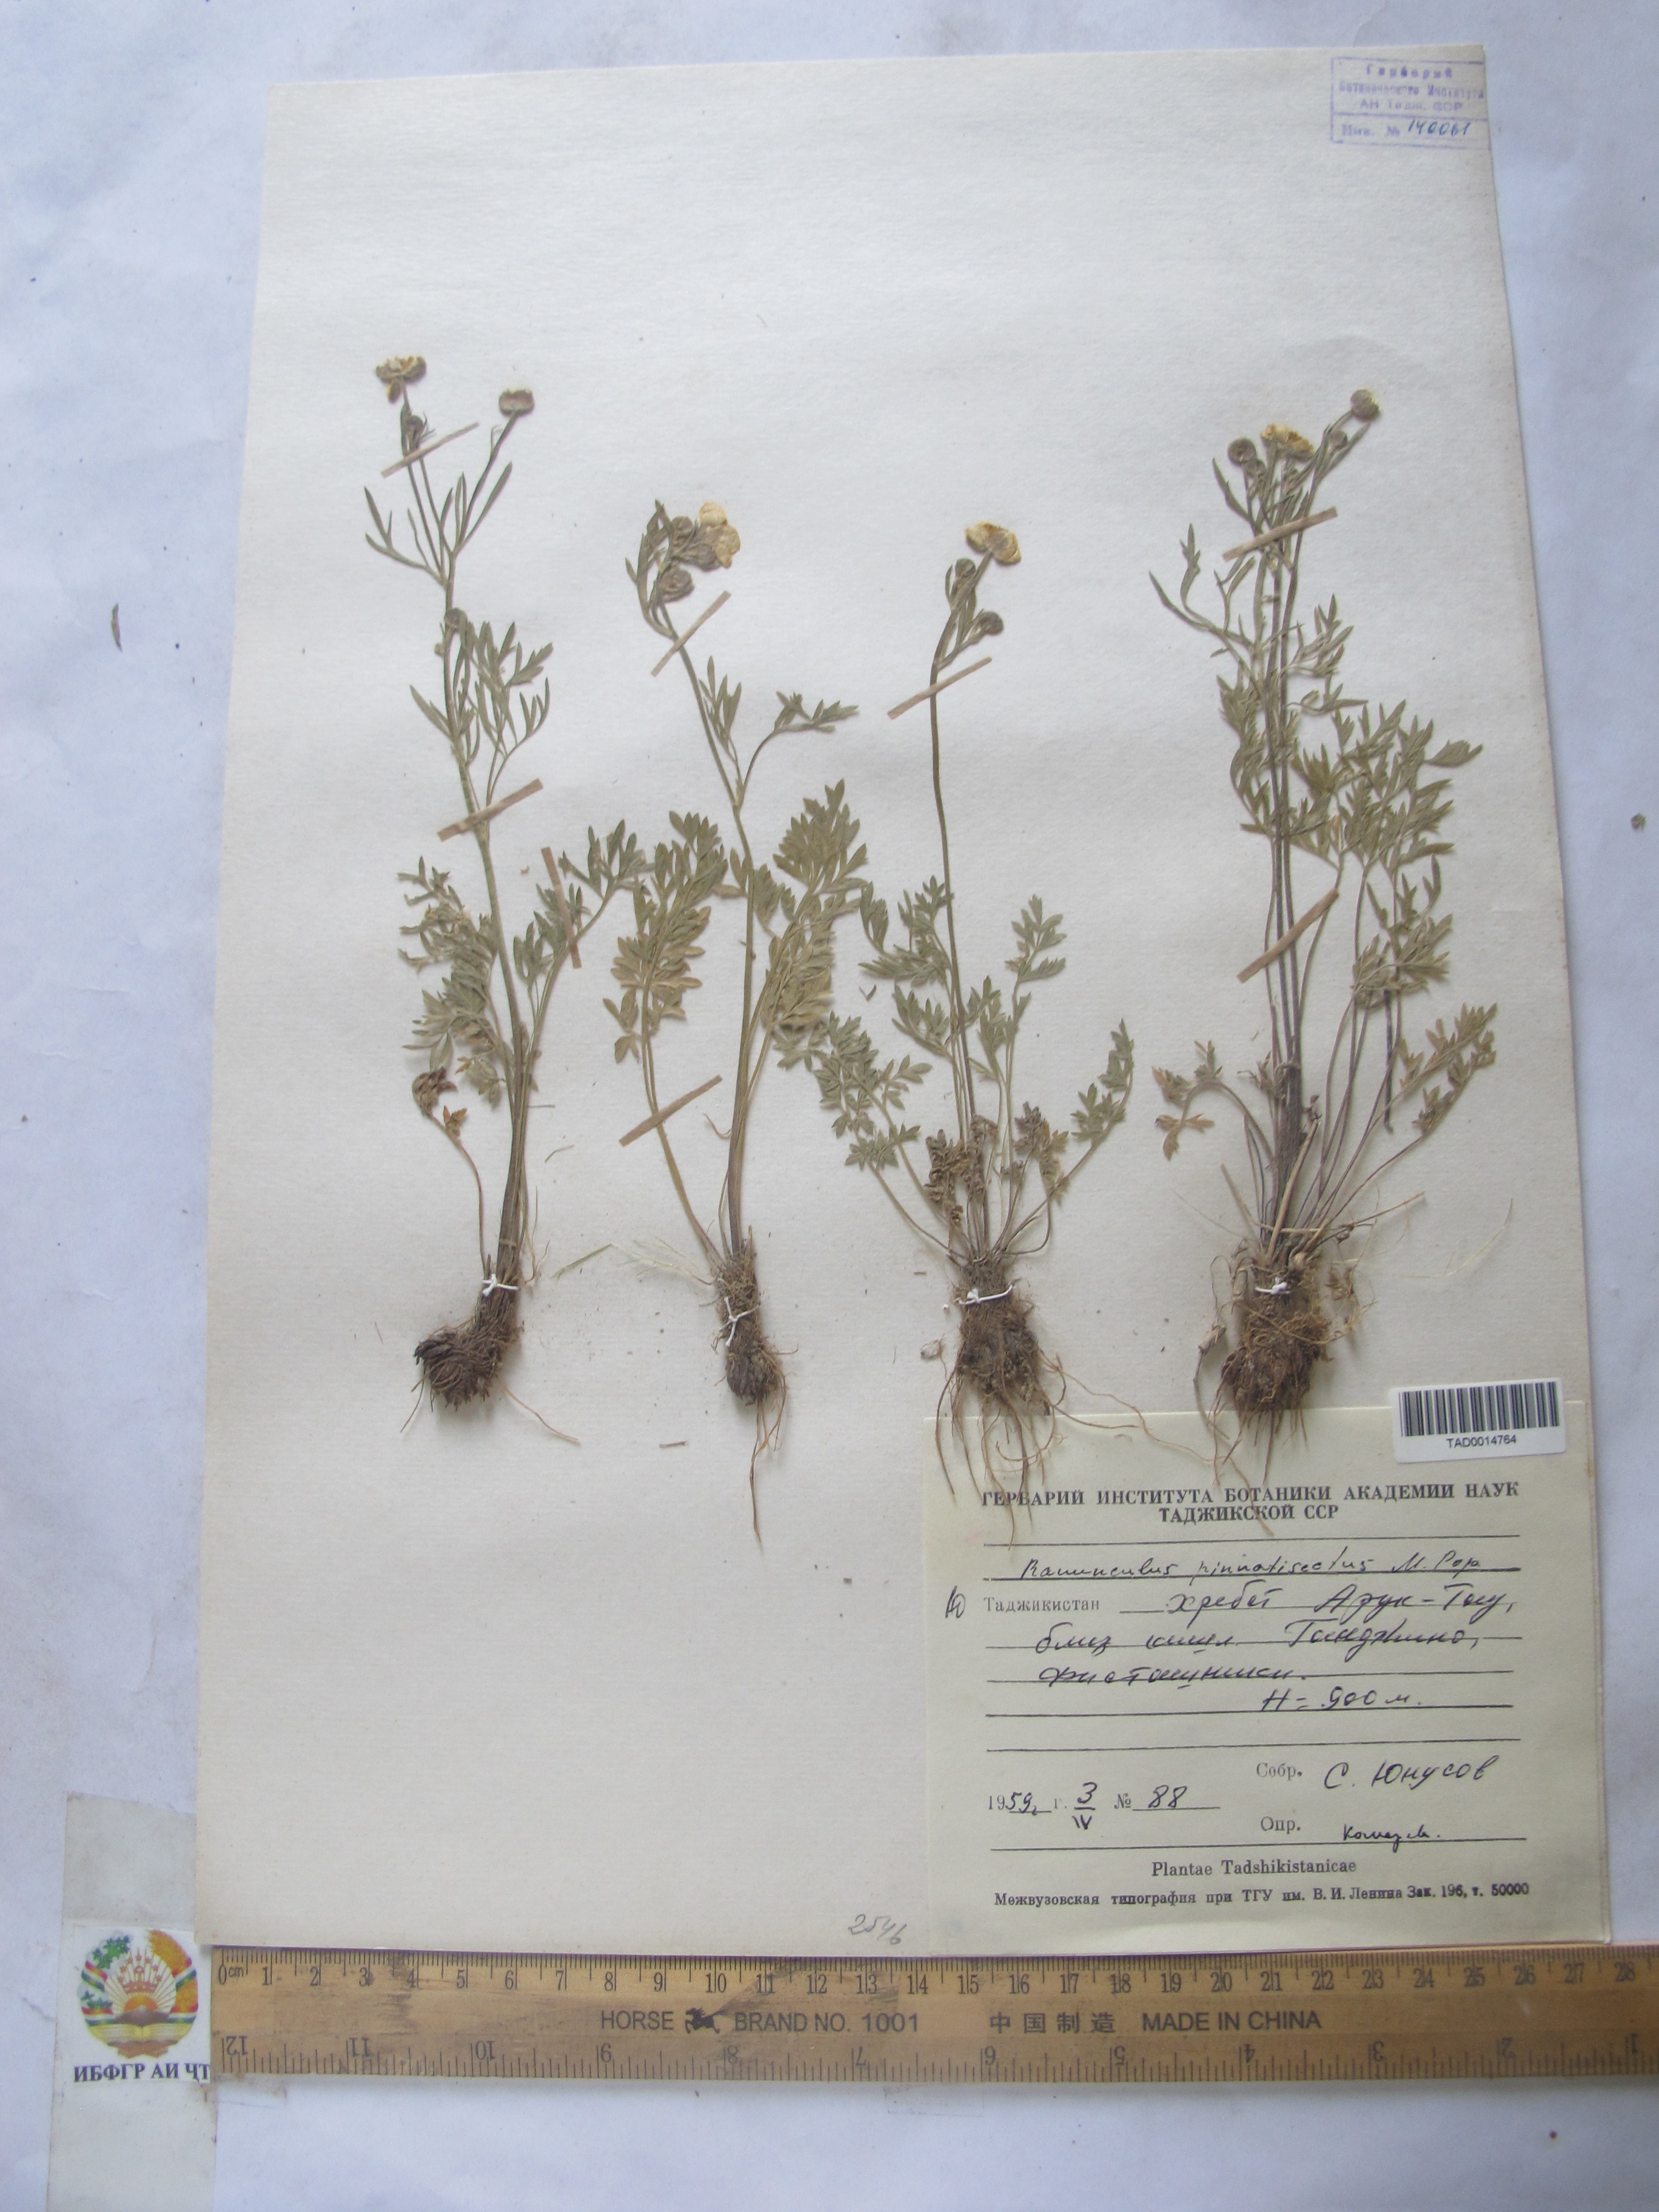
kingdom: Plantae
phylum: Tracheophyta
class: Magnoliopsida
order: Ranunculales
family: Ranunculaceae
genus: Ranunculus
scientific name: Ranunculus pinnatisectus
